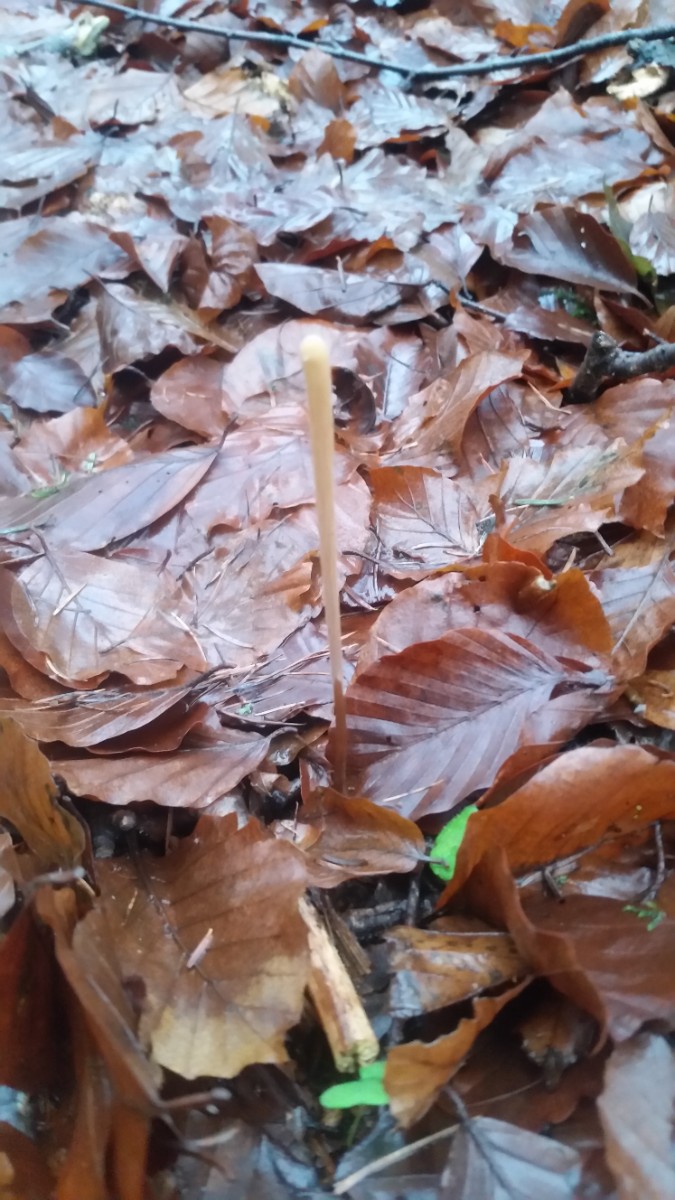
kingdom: Fungi
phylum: Basidiomycota
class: Agaricomycetes
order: Agaricales
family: Typhulaceae
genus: Typhula
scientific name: Typhula fistulosa
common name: pibet rørkølle
